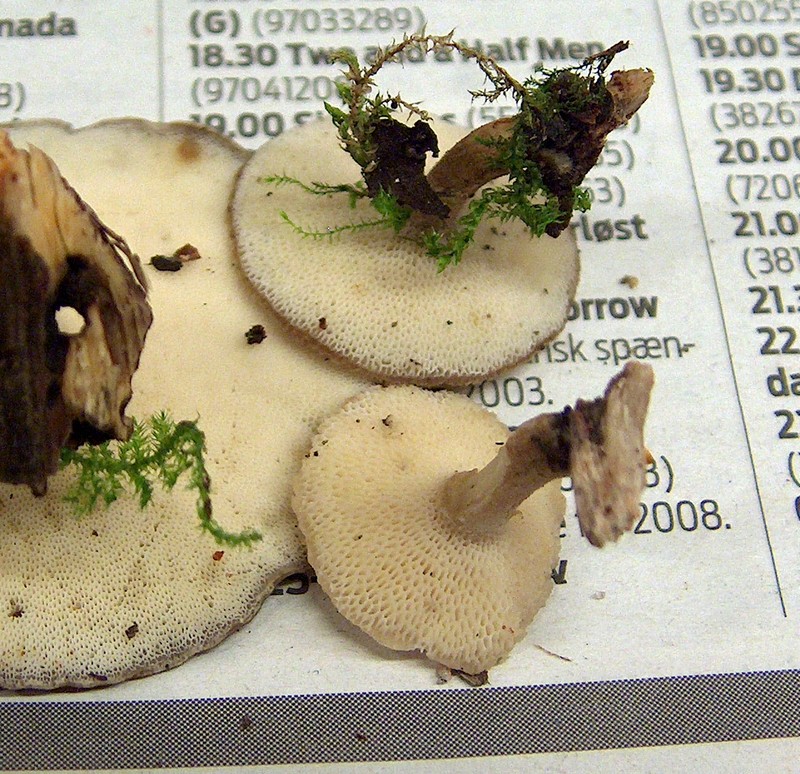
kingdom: Fungi
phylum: Basidiomycota
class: Agaricomycetes
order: Polyporales
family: Polyporaceae
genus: Lentinus
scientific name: Lentinus brumalis
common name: vinter-stilkporesvamp
